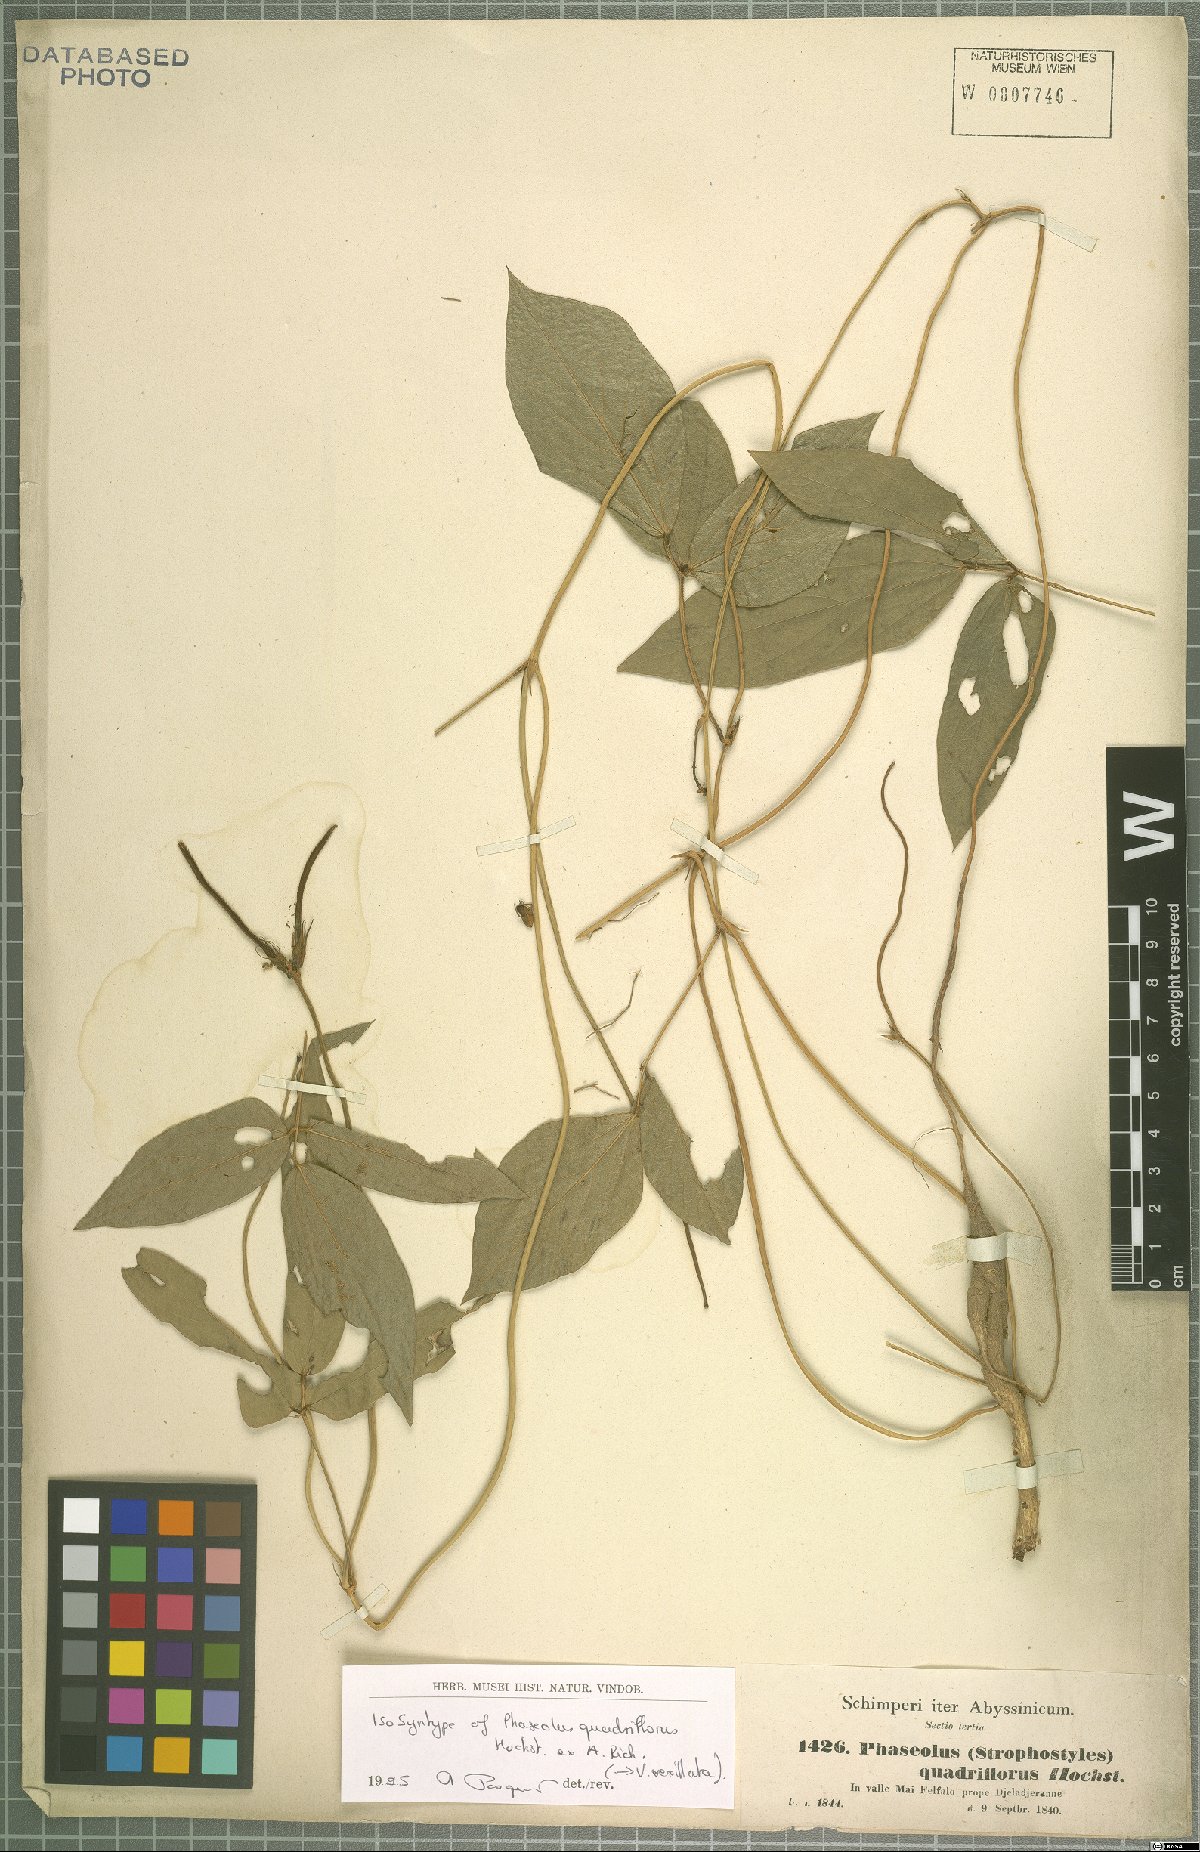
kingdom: Plantae
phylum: Tracheophyta
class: Magnoliopsida
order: Fabales
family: Fabaceae
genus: Vigna
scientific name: Vigna vexillata
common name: Zombi pea
